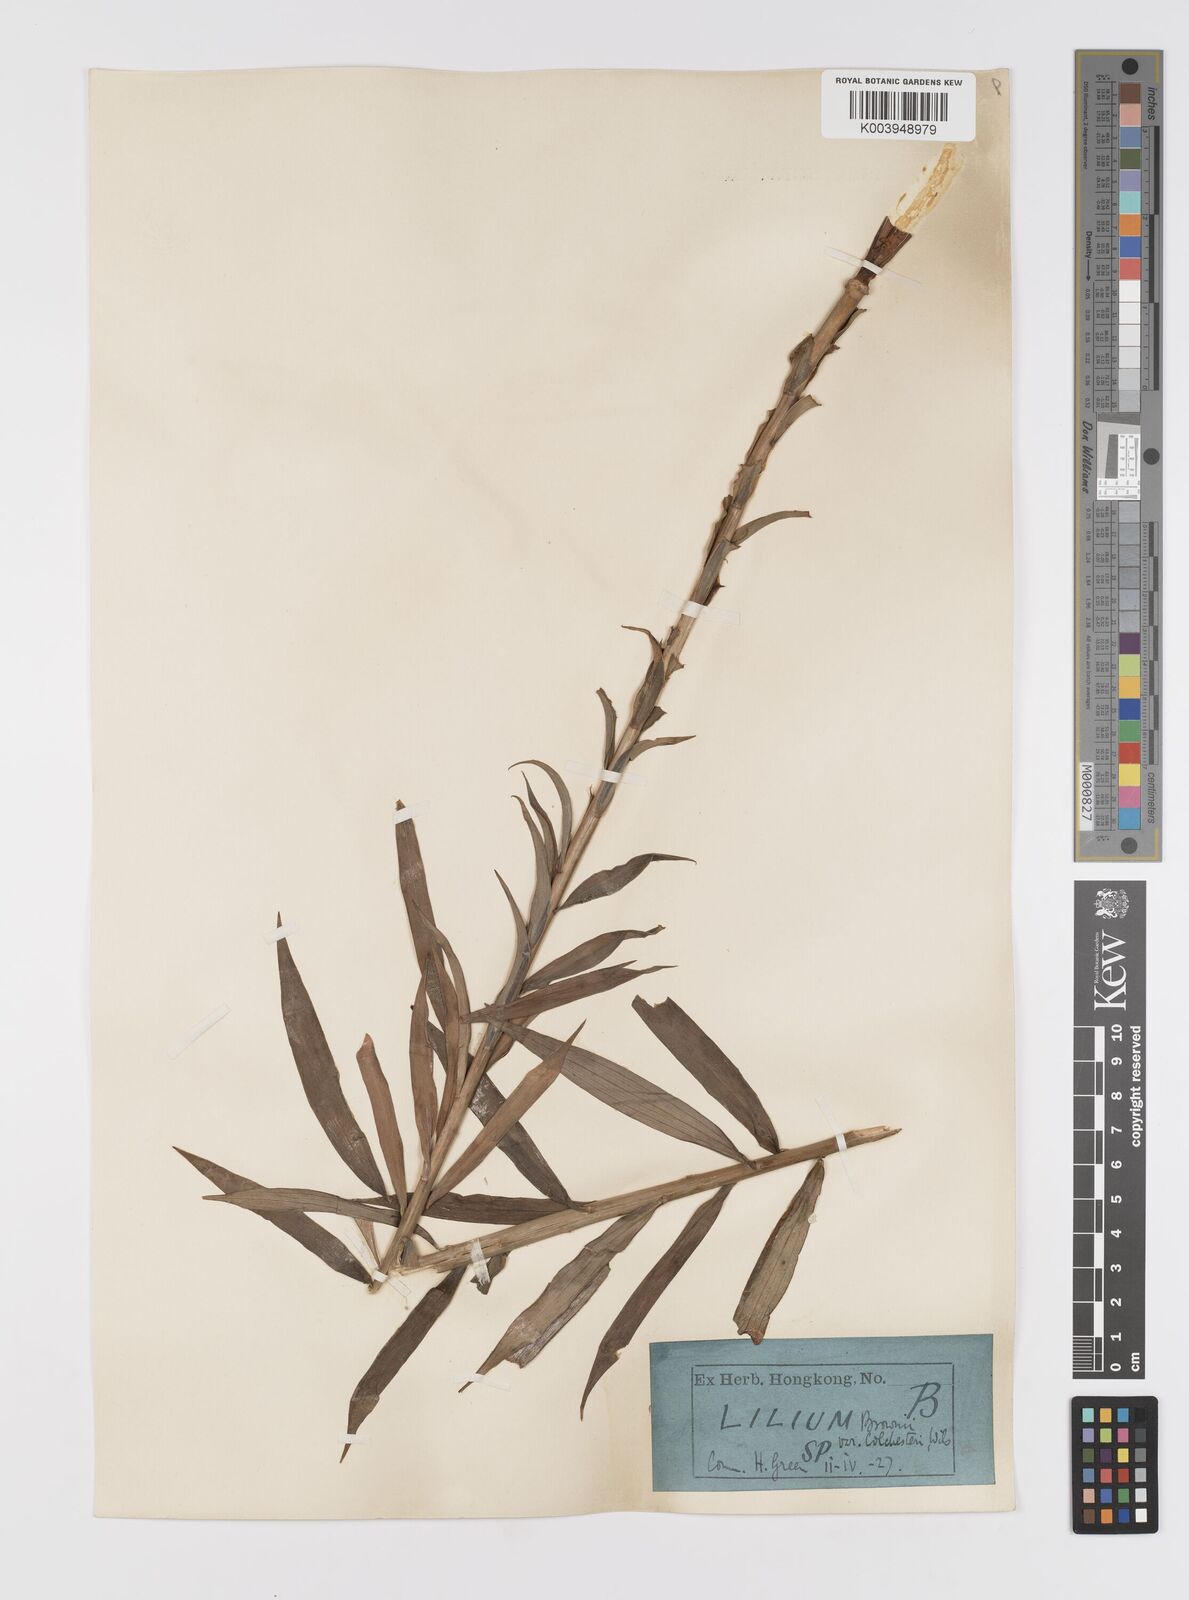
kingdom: Plantae
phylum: Tracheophyta
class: Liliopsida
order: Liliales
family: Liliaceae
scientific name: Liliaceae
